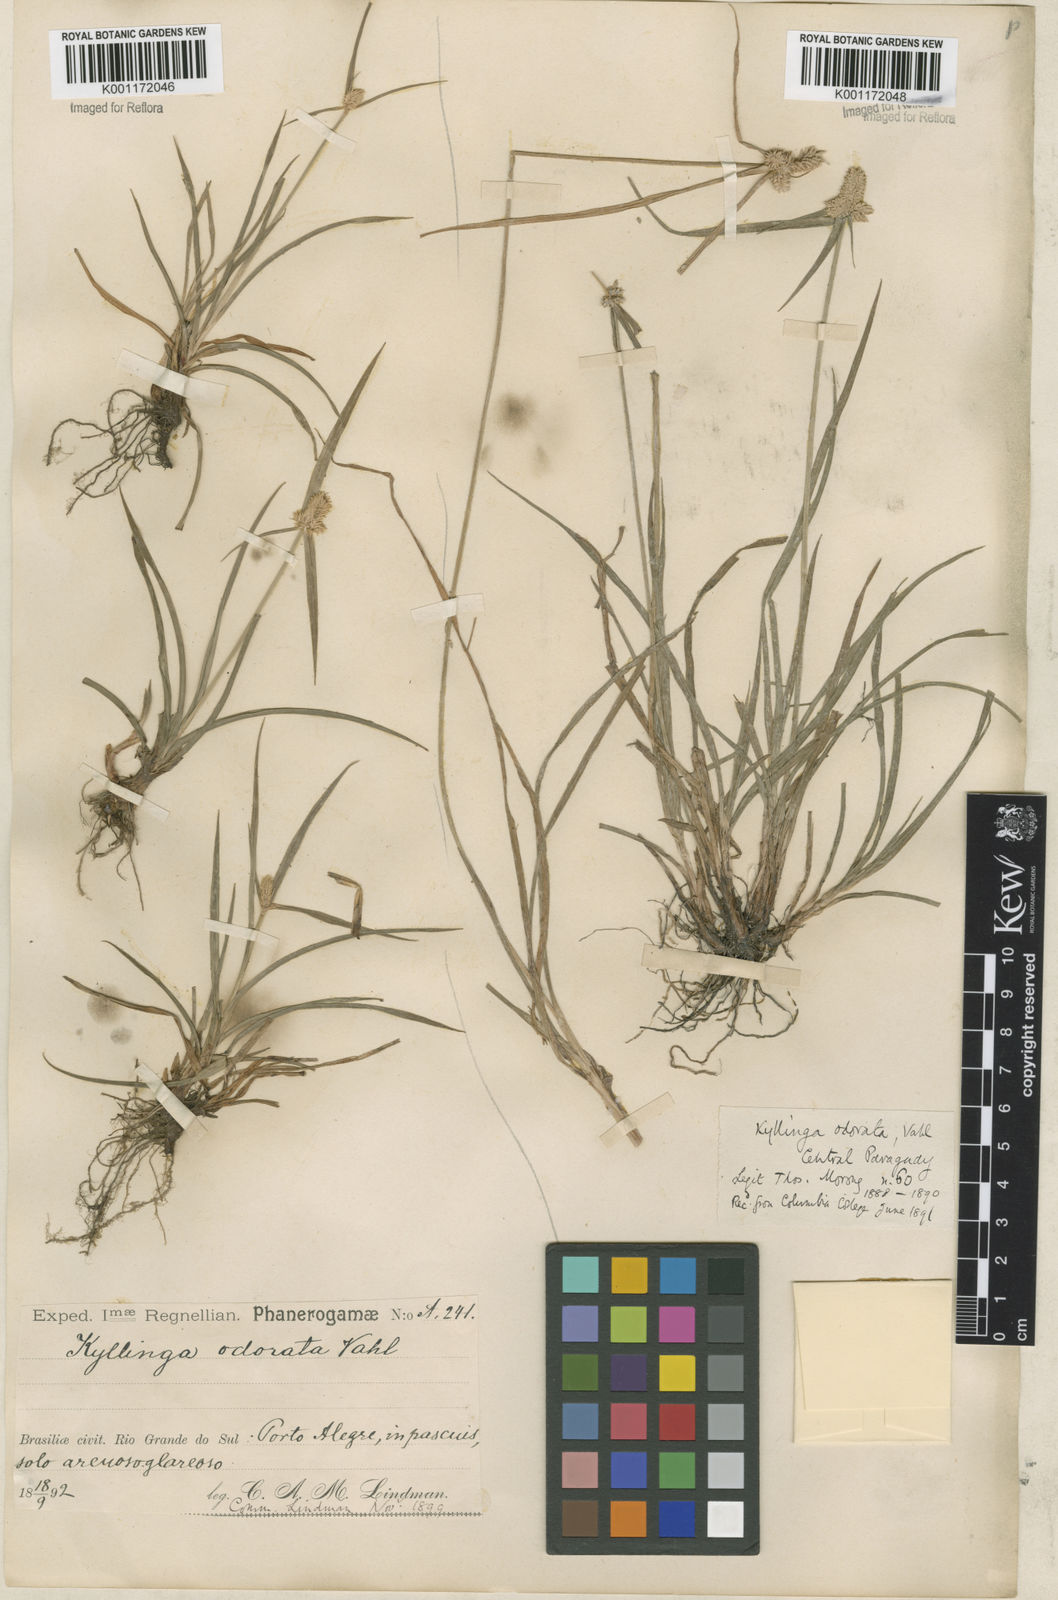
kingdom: Plantae
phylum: Tracheophyta
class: Liliopsida
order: Poales
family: Cyperaceae
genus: Cyperus
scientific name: Cyperus
